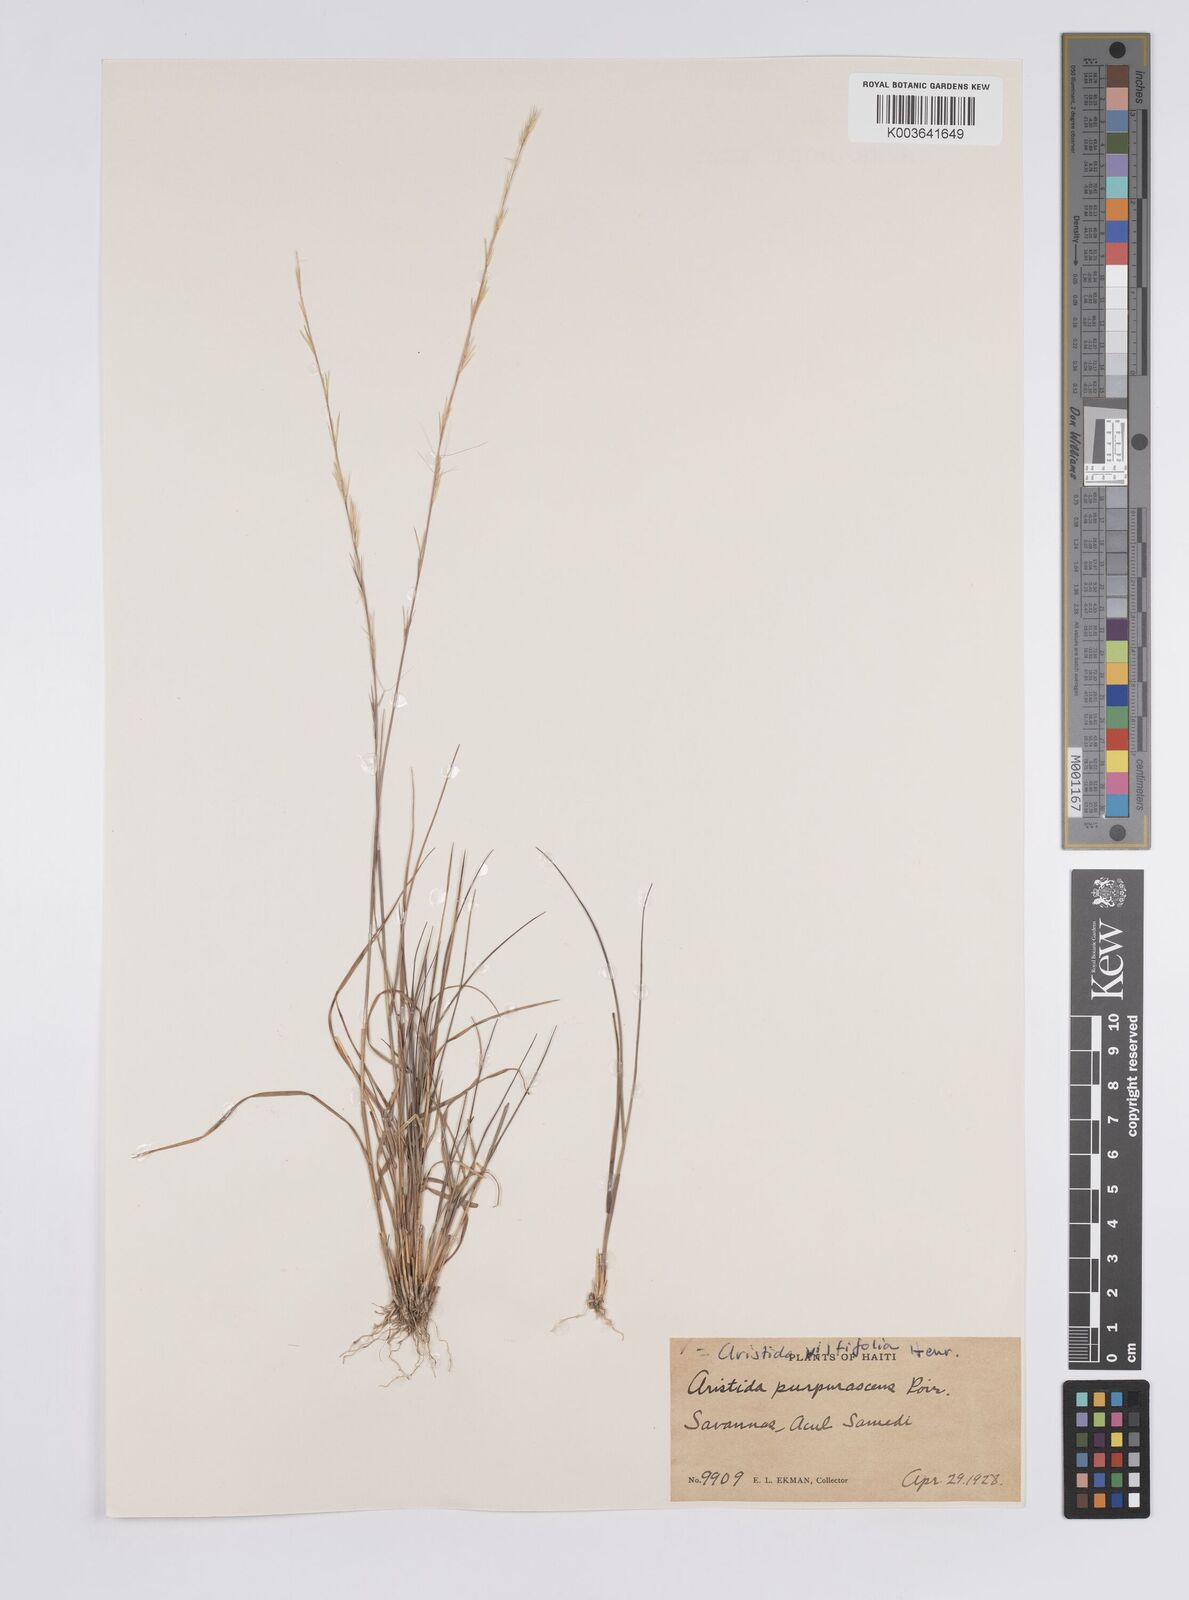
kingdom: Plantae
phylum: Tracheophyta
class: Liliopsida
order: Poales
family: Poaceae
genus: Aristida
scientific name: Aristida vilfifolia
